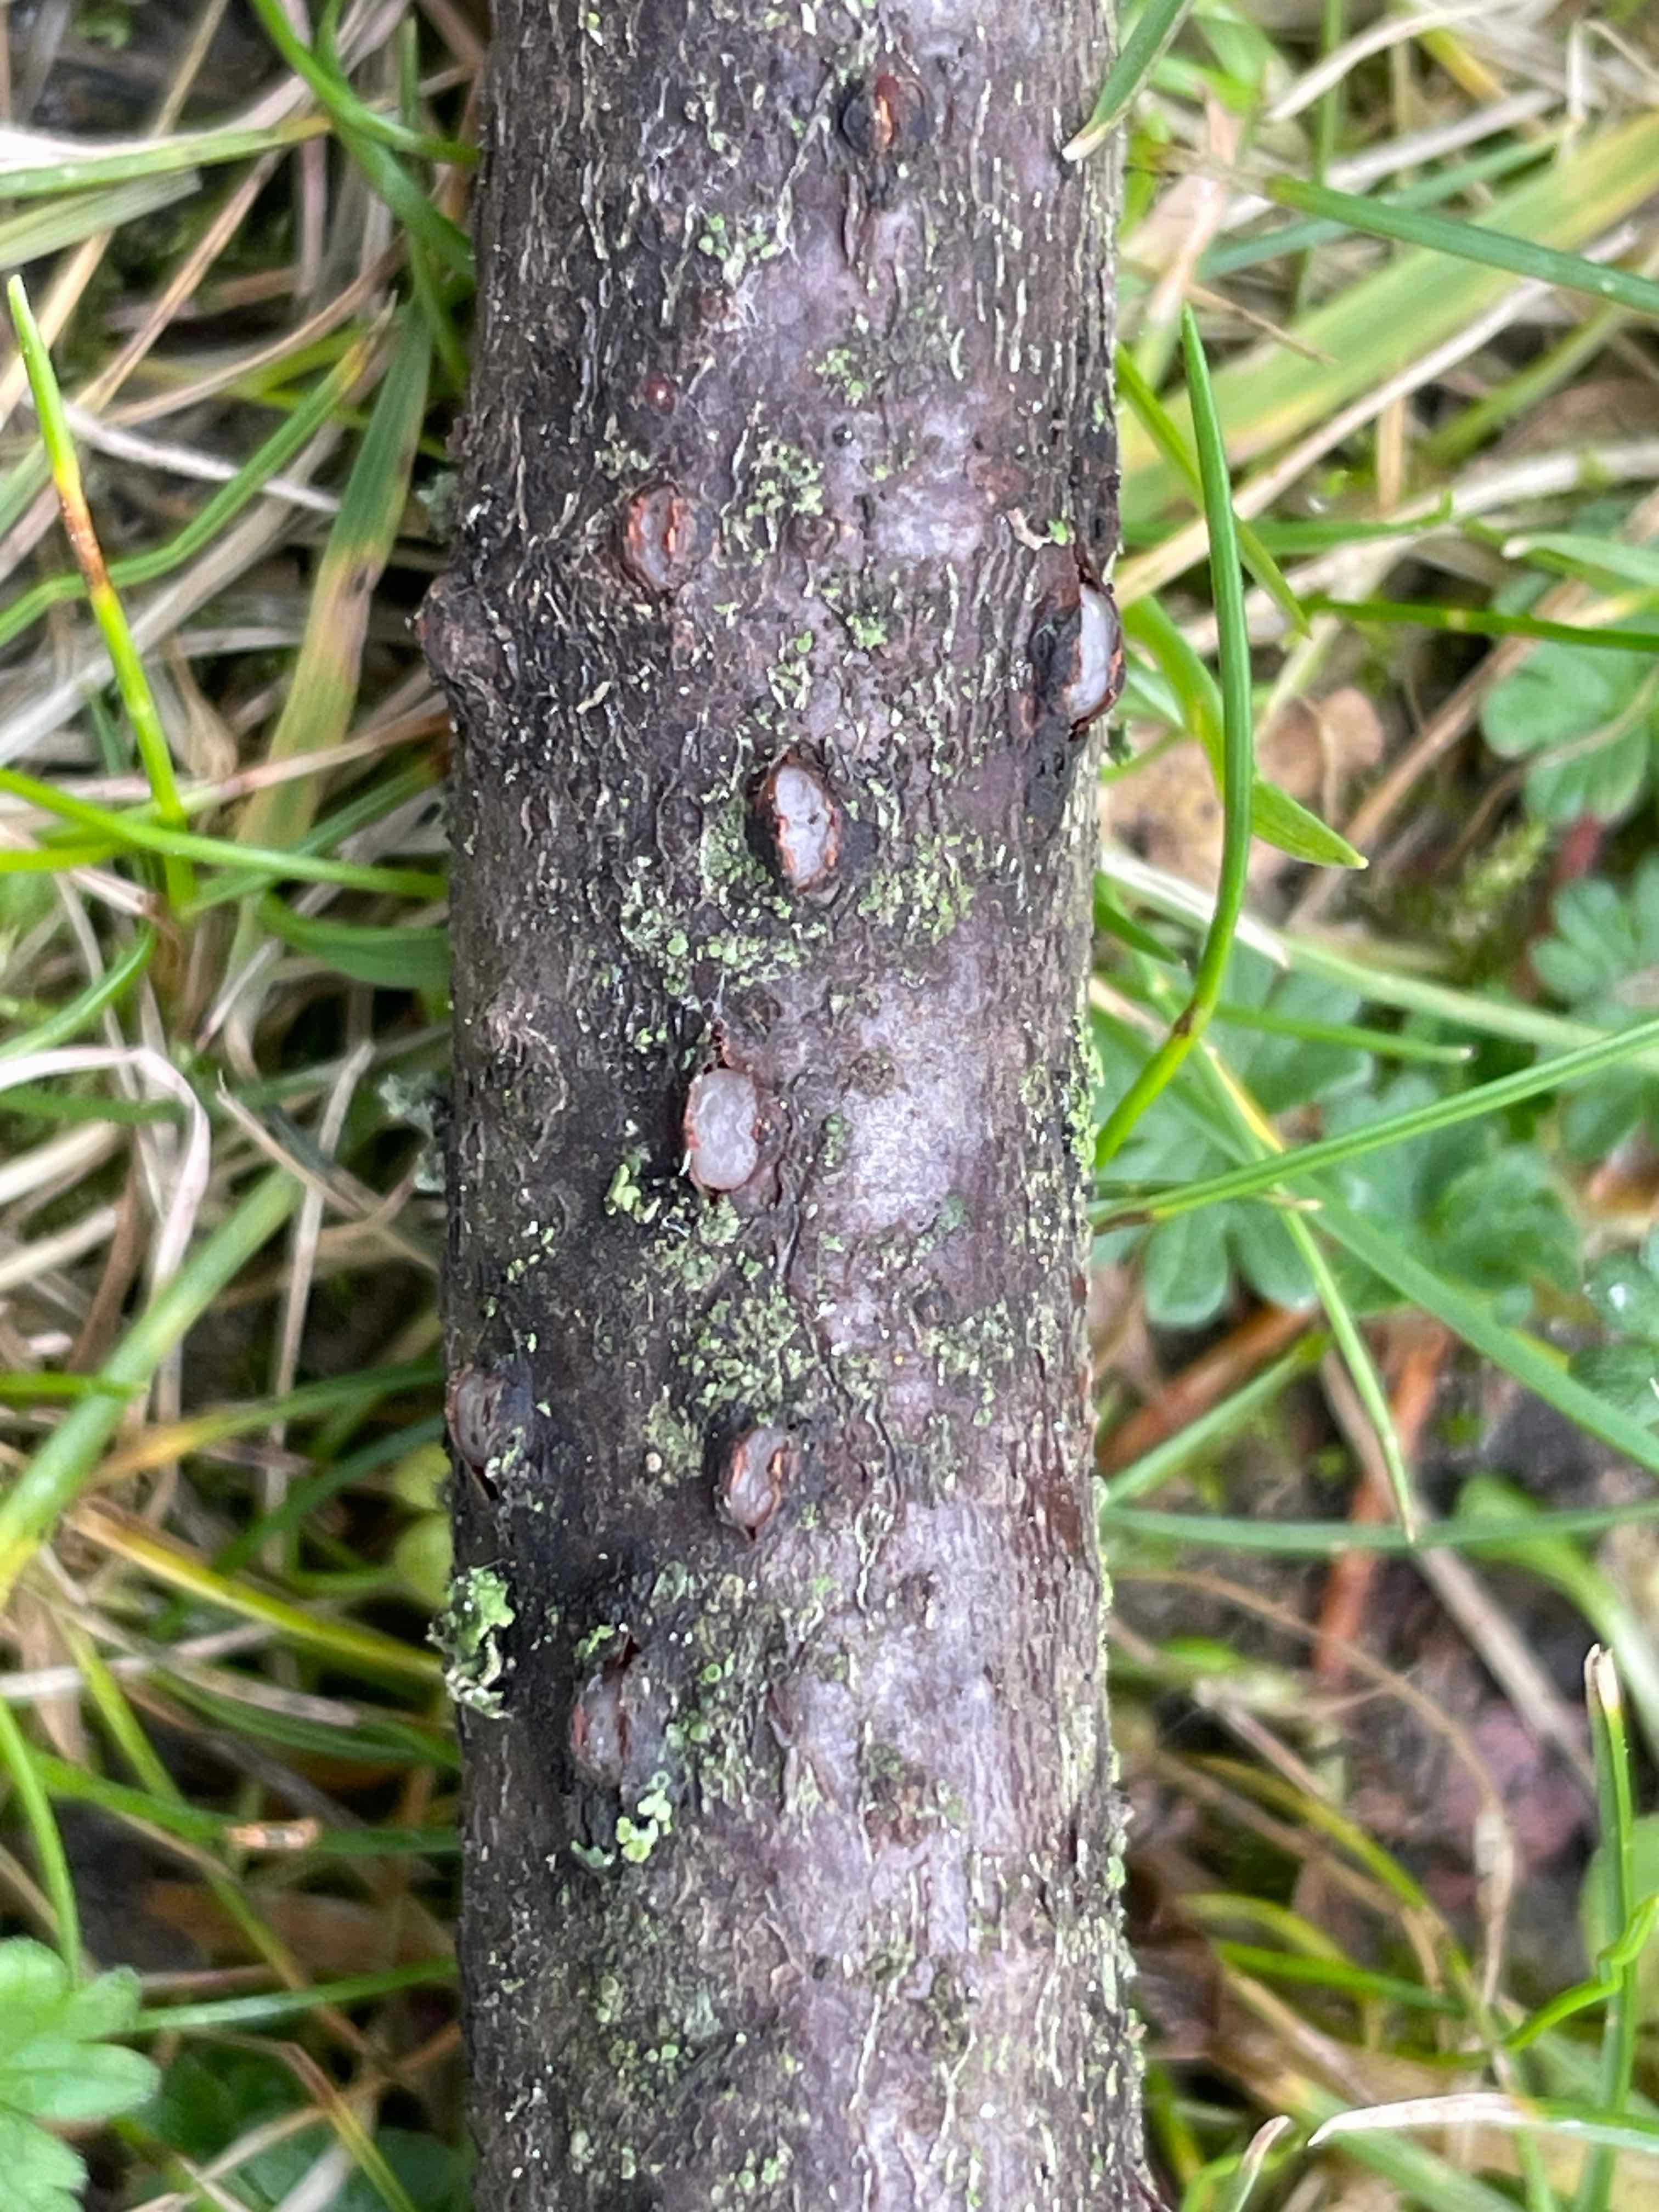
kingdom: Fungi
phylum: Basidiomycota
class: Pucciniomycetes
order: Platygloeales
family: Platygloeaceae
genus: Platygloea
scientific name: Platygloea disciformis
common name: linde-slimklat
